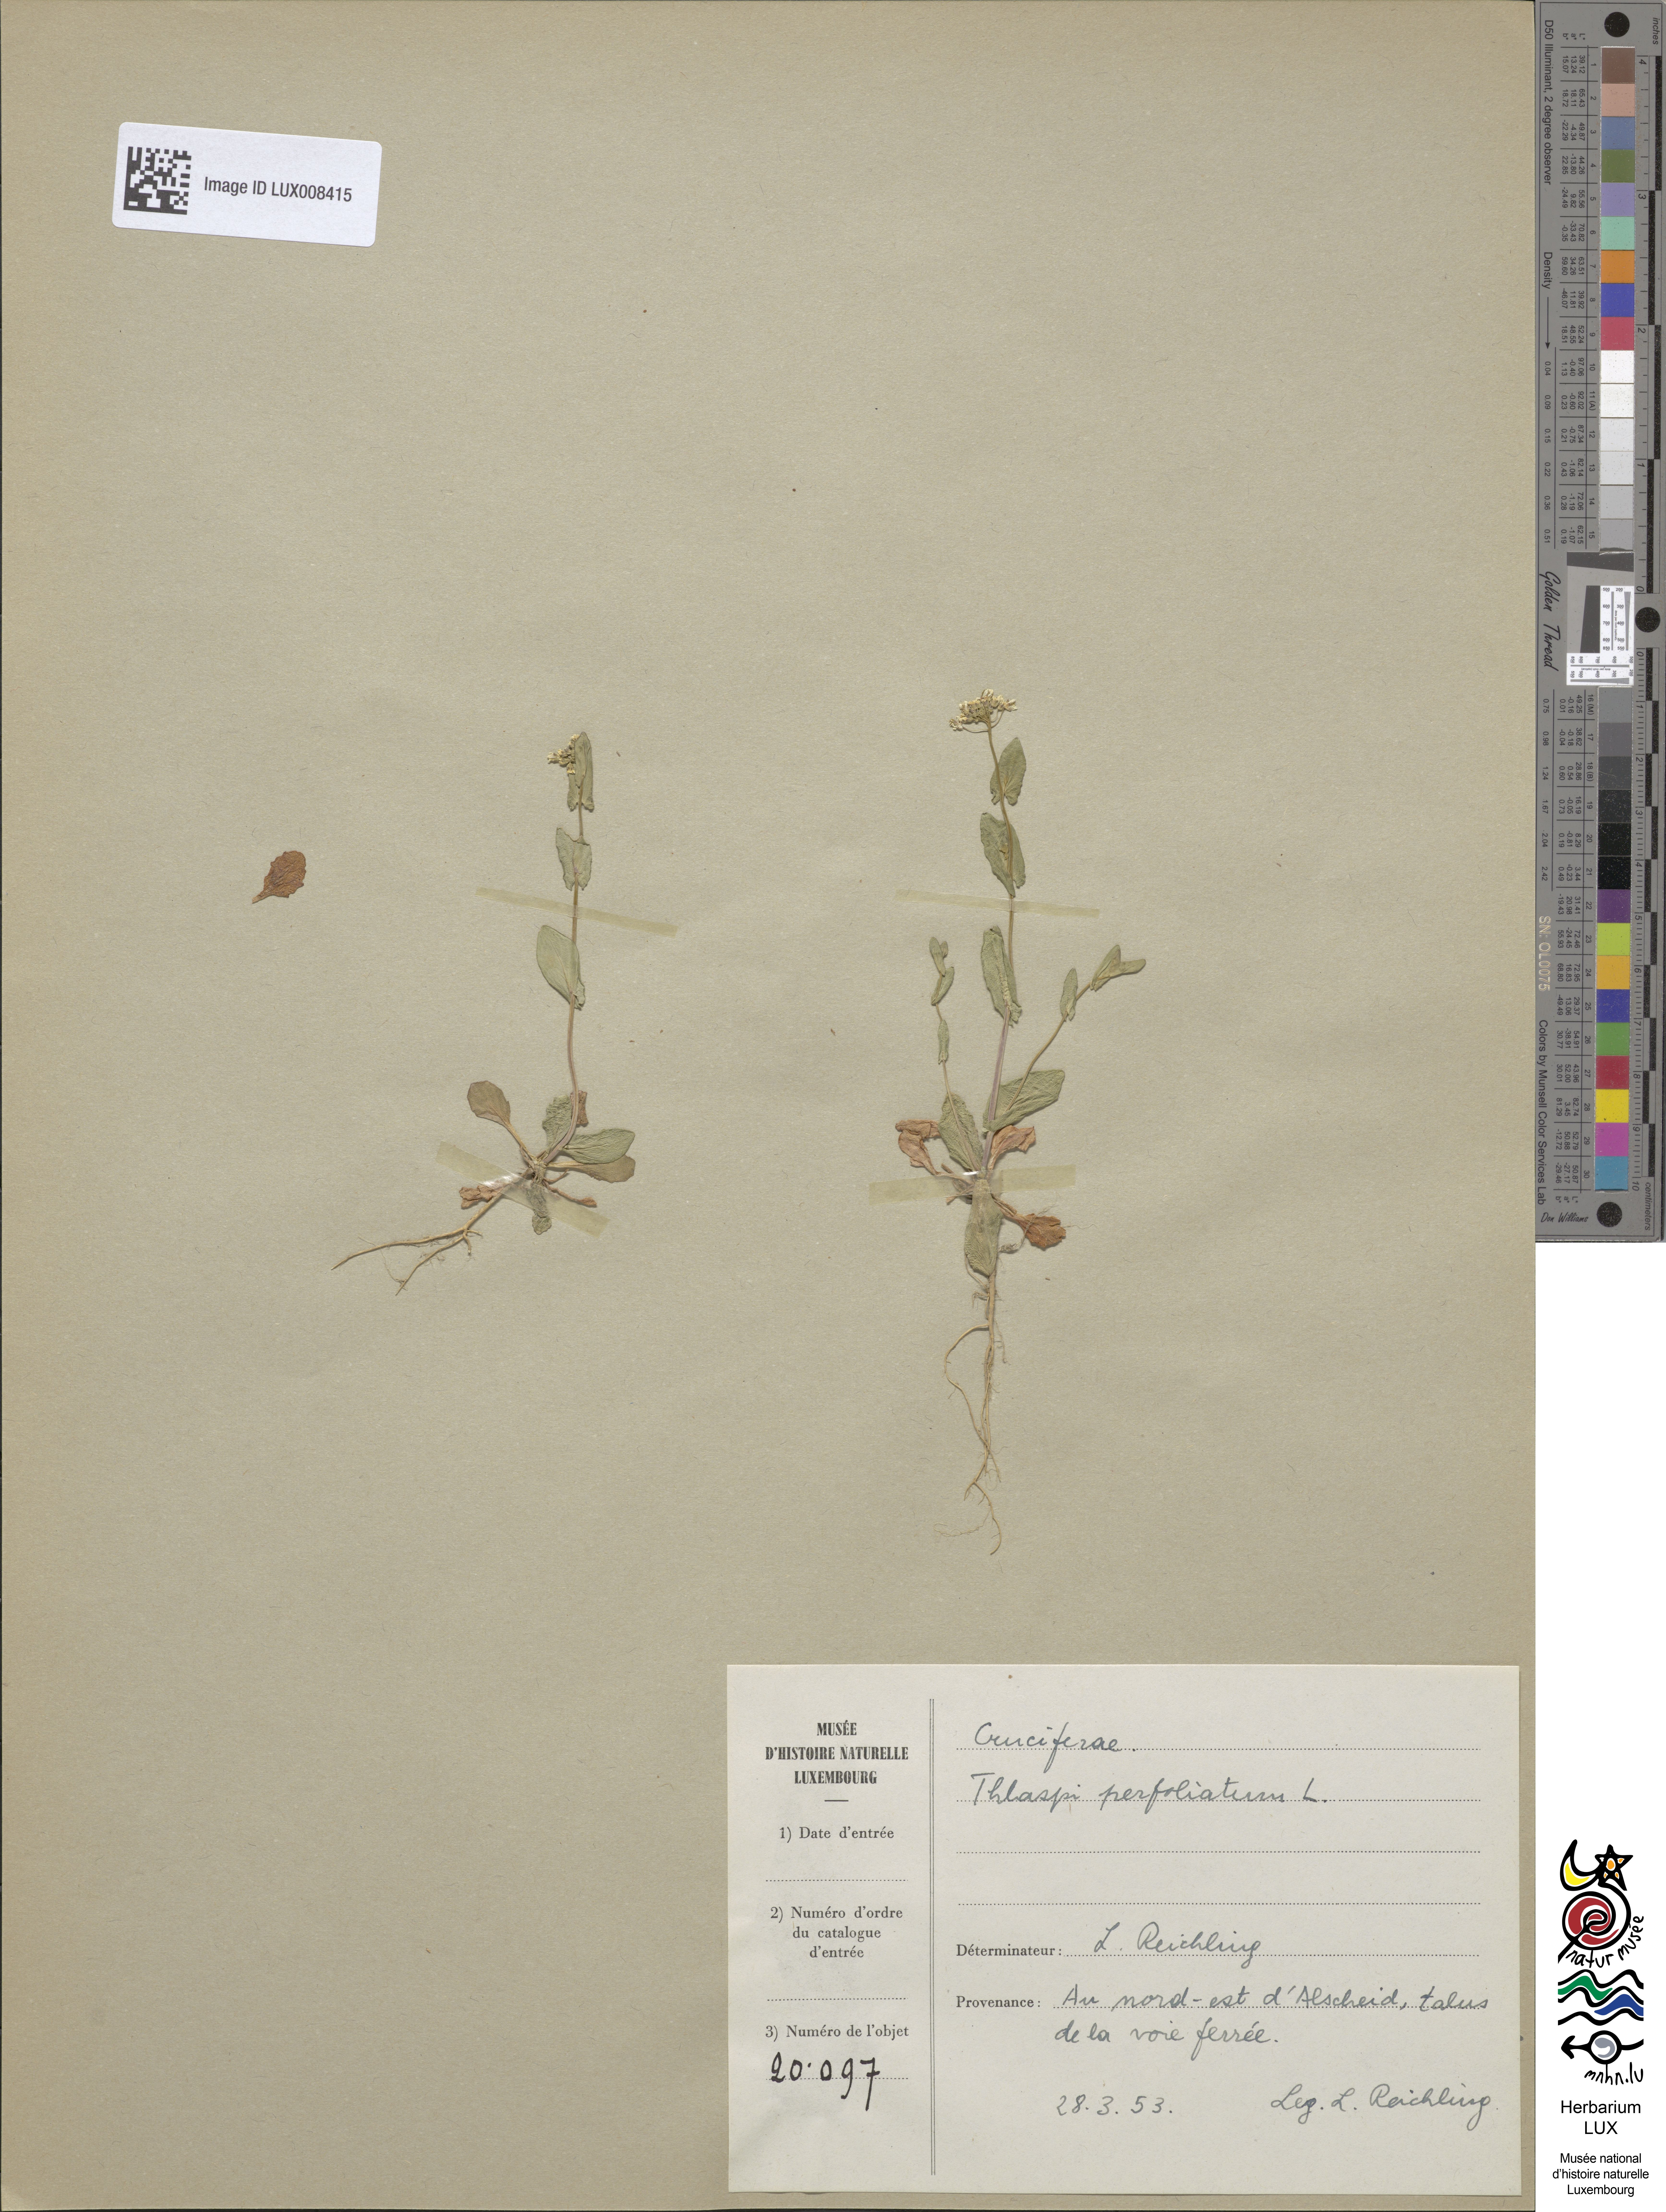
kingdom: Plantae
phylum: Tracheophyta
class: Magnoliopsida
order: Brassicales
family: Brassicaceae
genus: Noccaea
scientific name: Noccaea perfoliata
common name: Perfoliate pennycress
